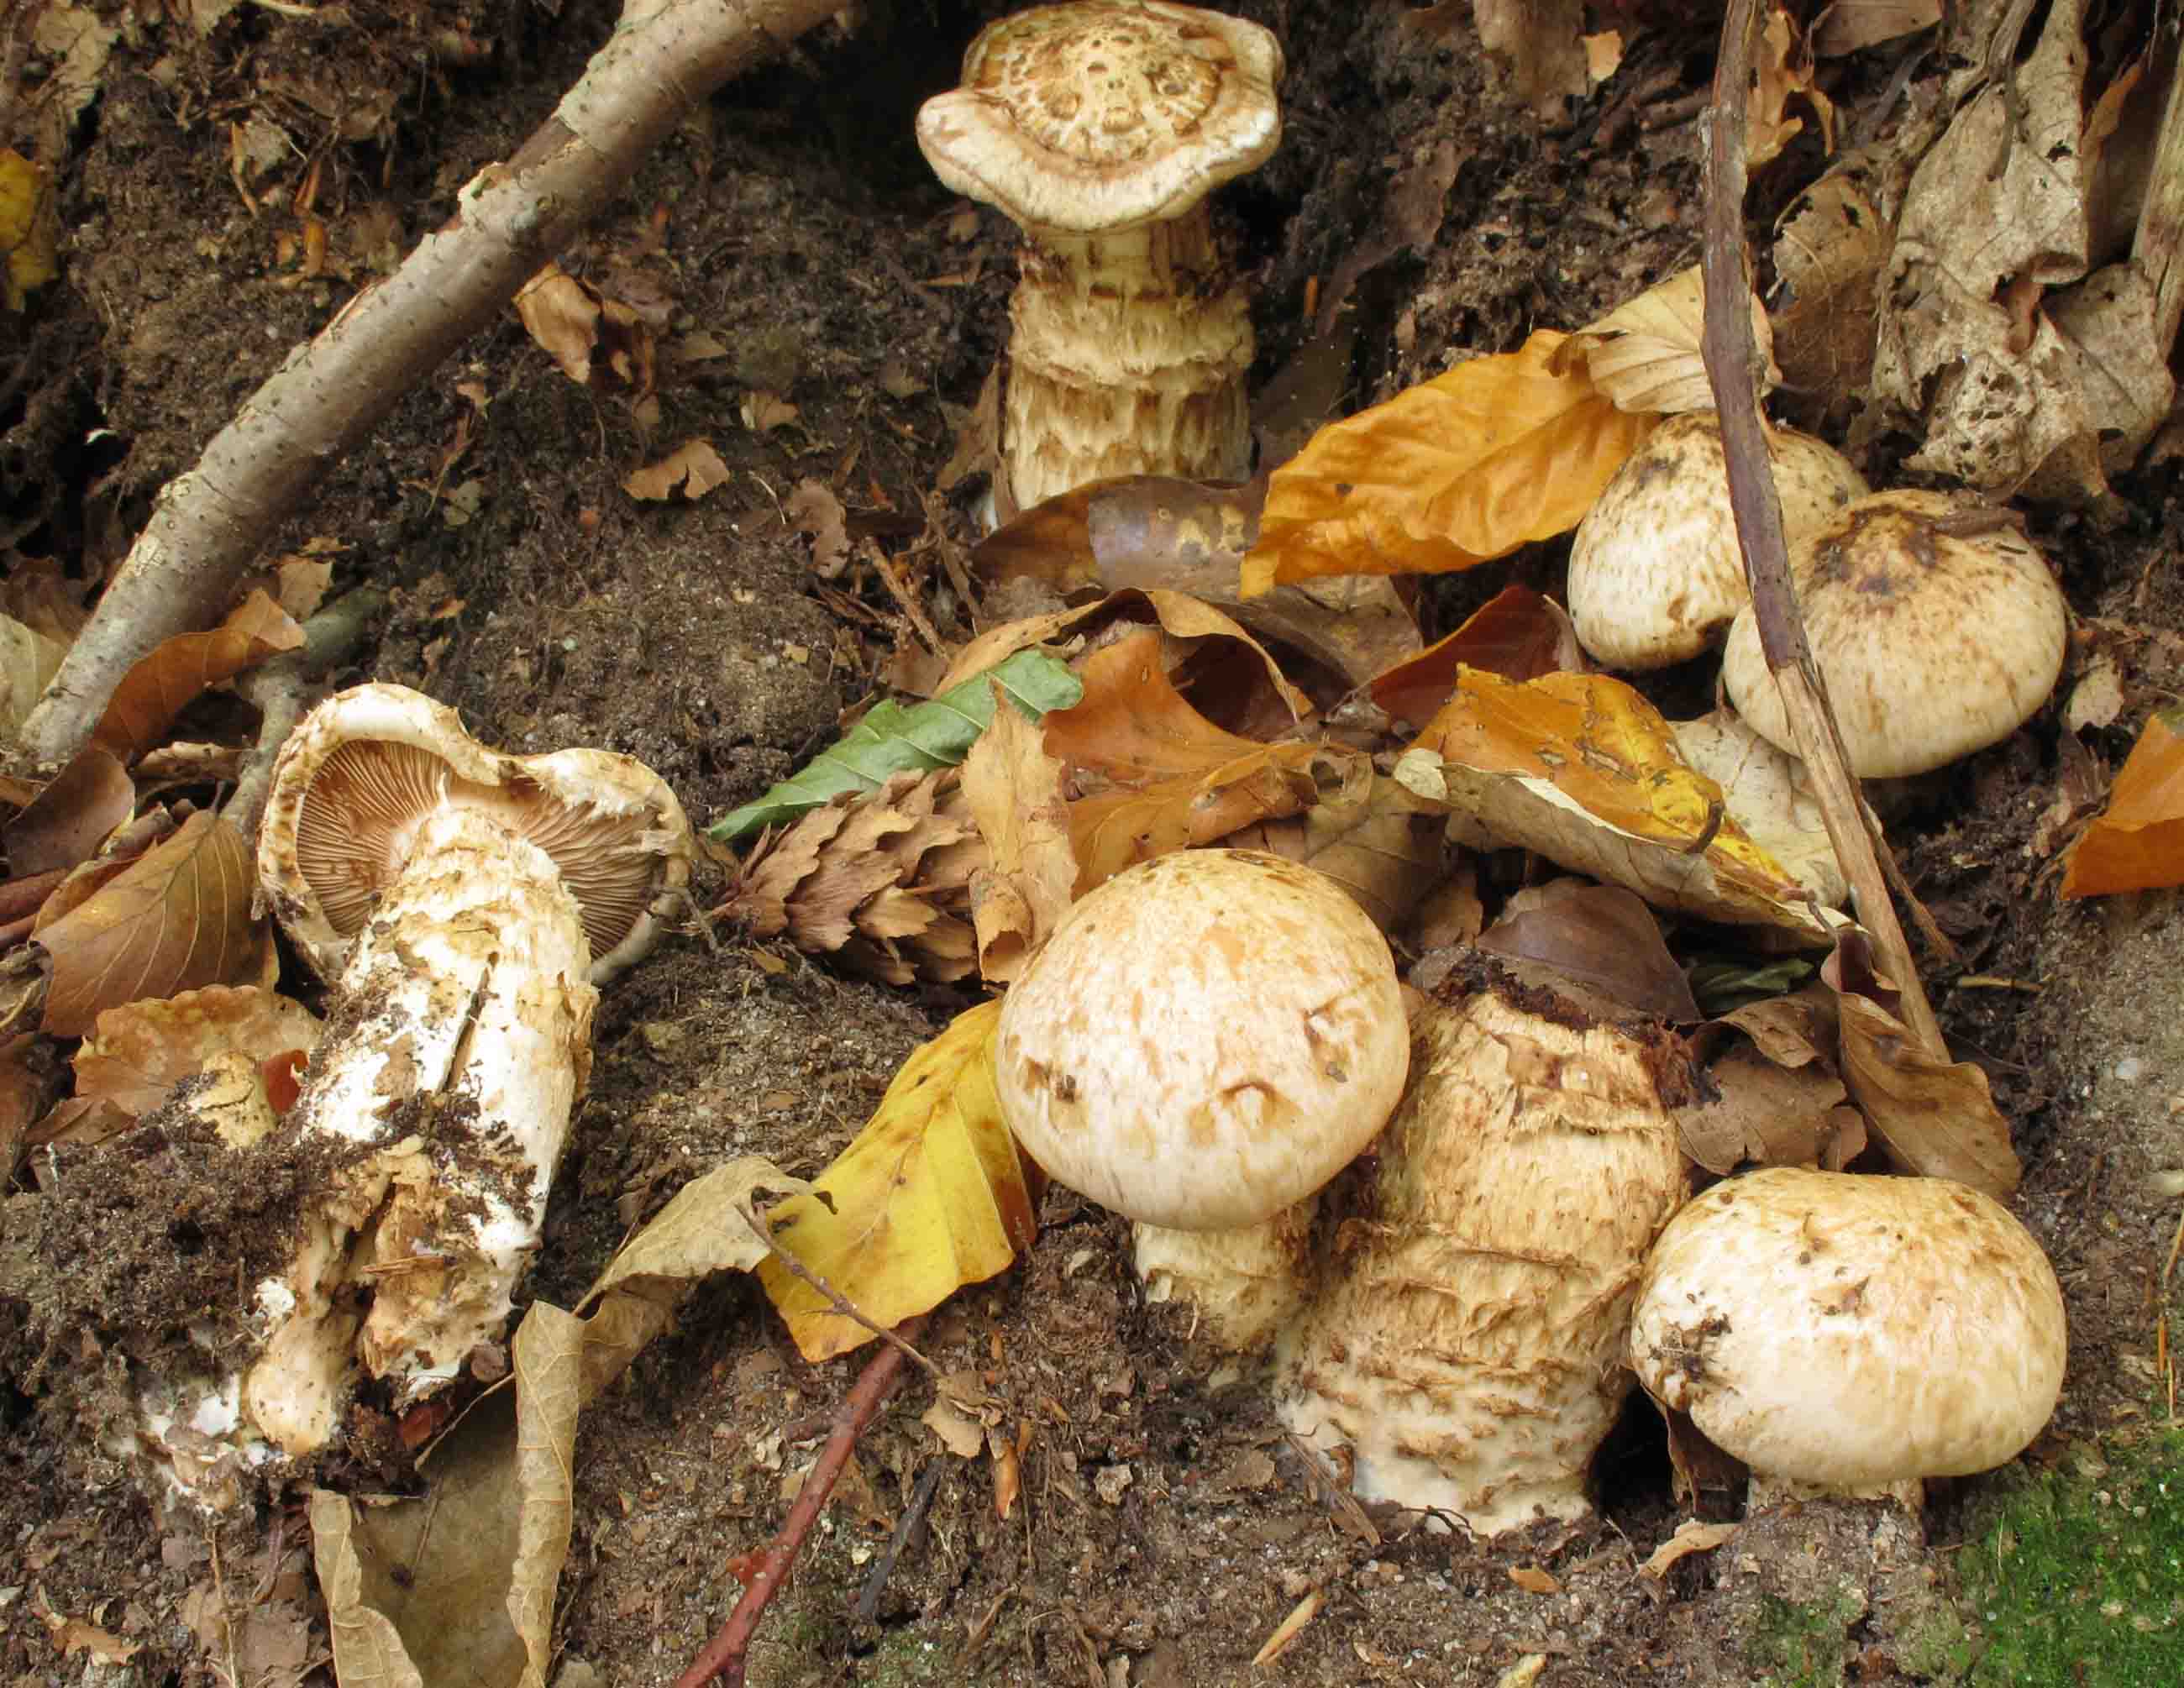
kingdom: Fungi
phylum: Basidiomycota
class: Agaricomycetes
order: Agaricales
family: Hymenogastraceae
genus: Hebeloma
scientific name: Hebeloma radicosum
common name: pælerods-tåreblad
